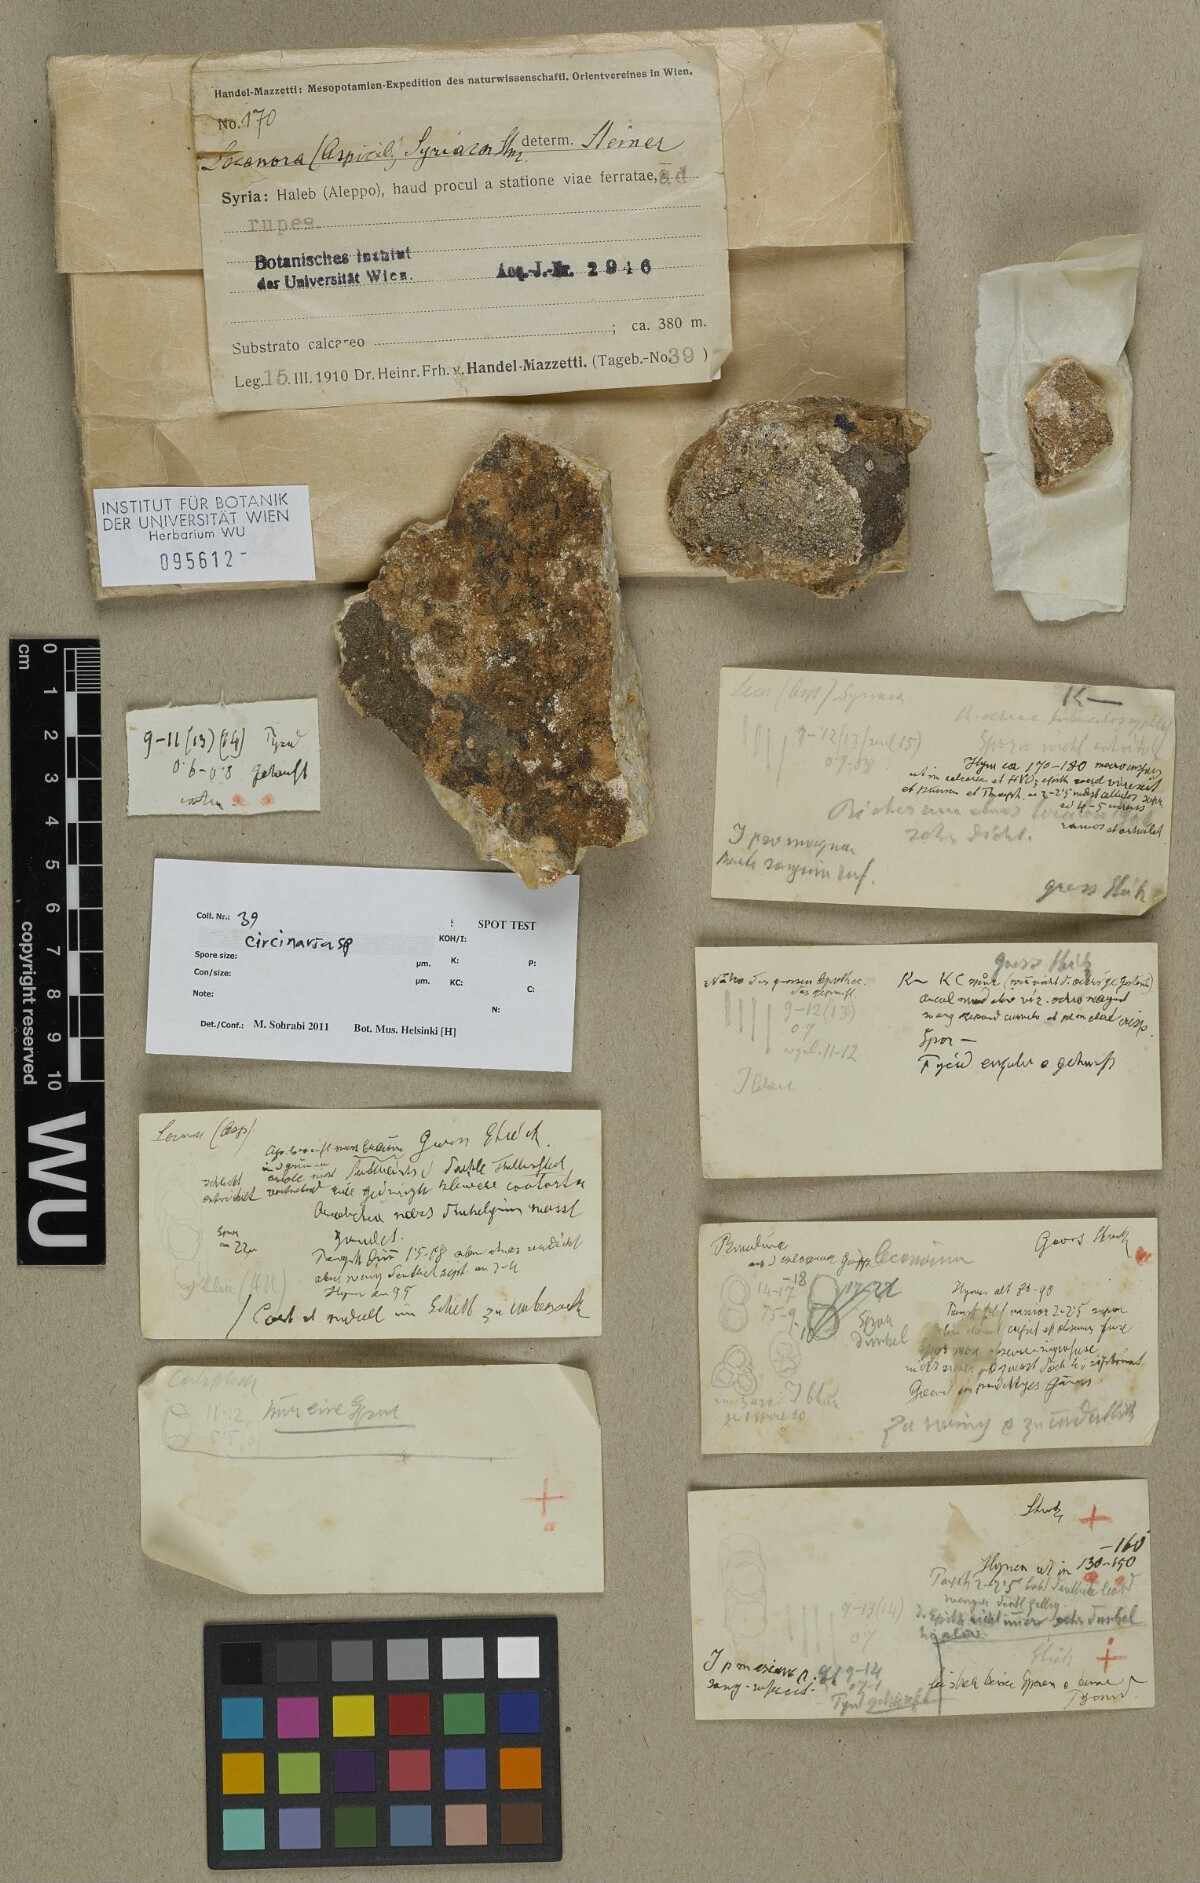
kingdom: Fungi
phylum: Ascomycota
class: Lecanoromycetes
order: Pertusariales
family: Megasporaceae
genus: Circinaria
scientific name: Circinaria
